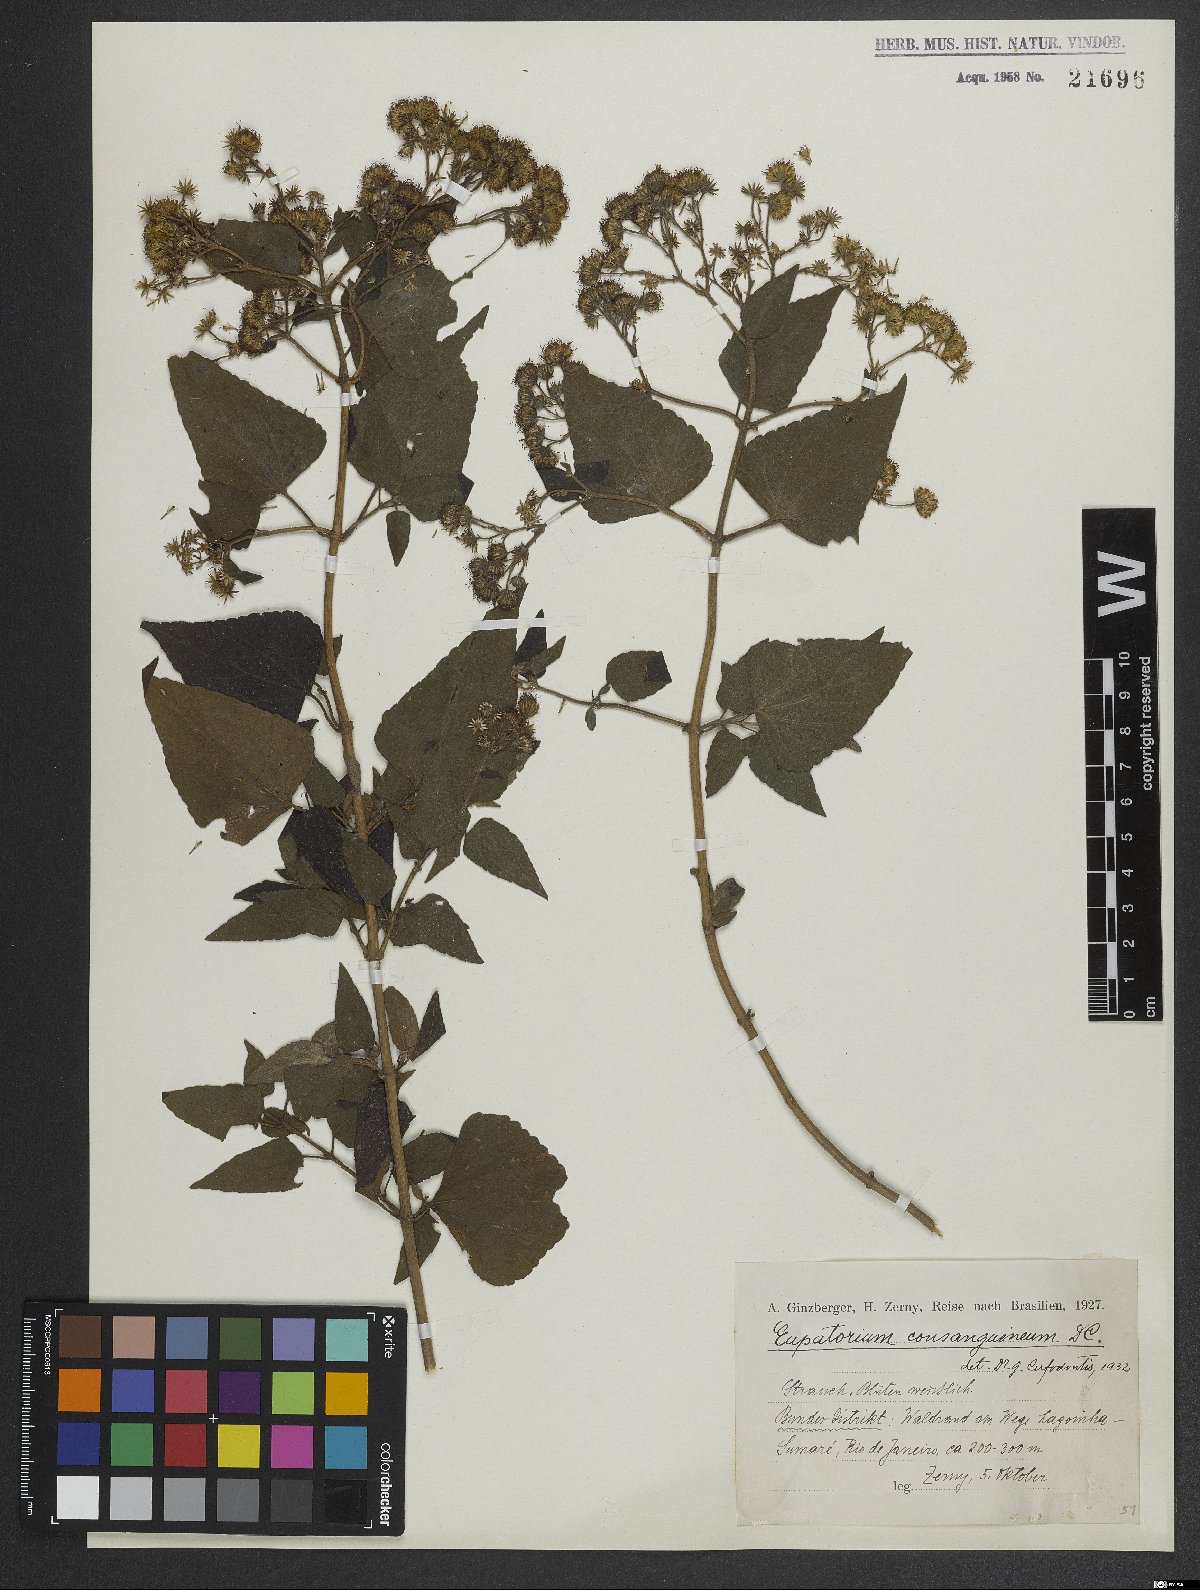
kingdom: Plantae
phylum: Tracheophyta
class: Magnoliopsida
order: Asterales
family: Asteraceae
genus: Koanophyllon
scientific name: Koanophyllon consanguineum
